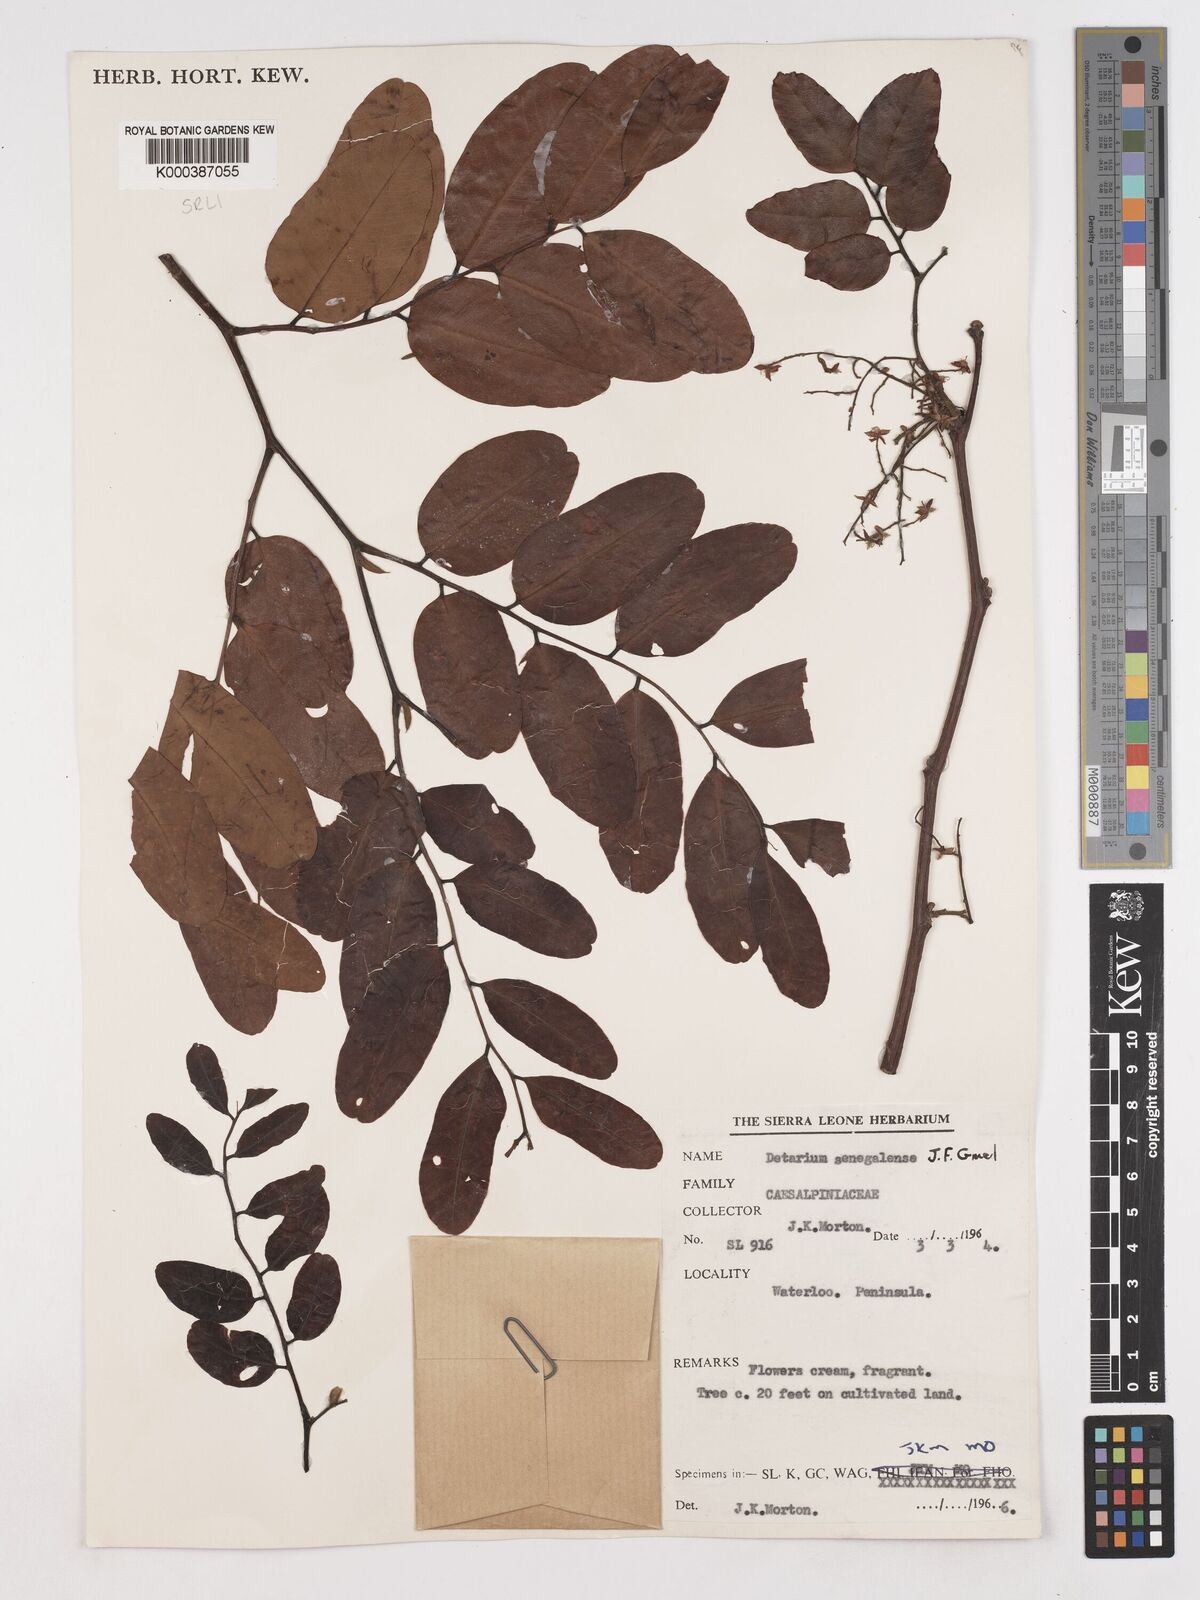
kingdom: Plantae
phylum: Tracheophyta
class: Magnoliopsida
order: Fabales
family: Fabaceae
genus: Detarium
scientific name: Detarium microcarpum
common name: Sweet dattock
